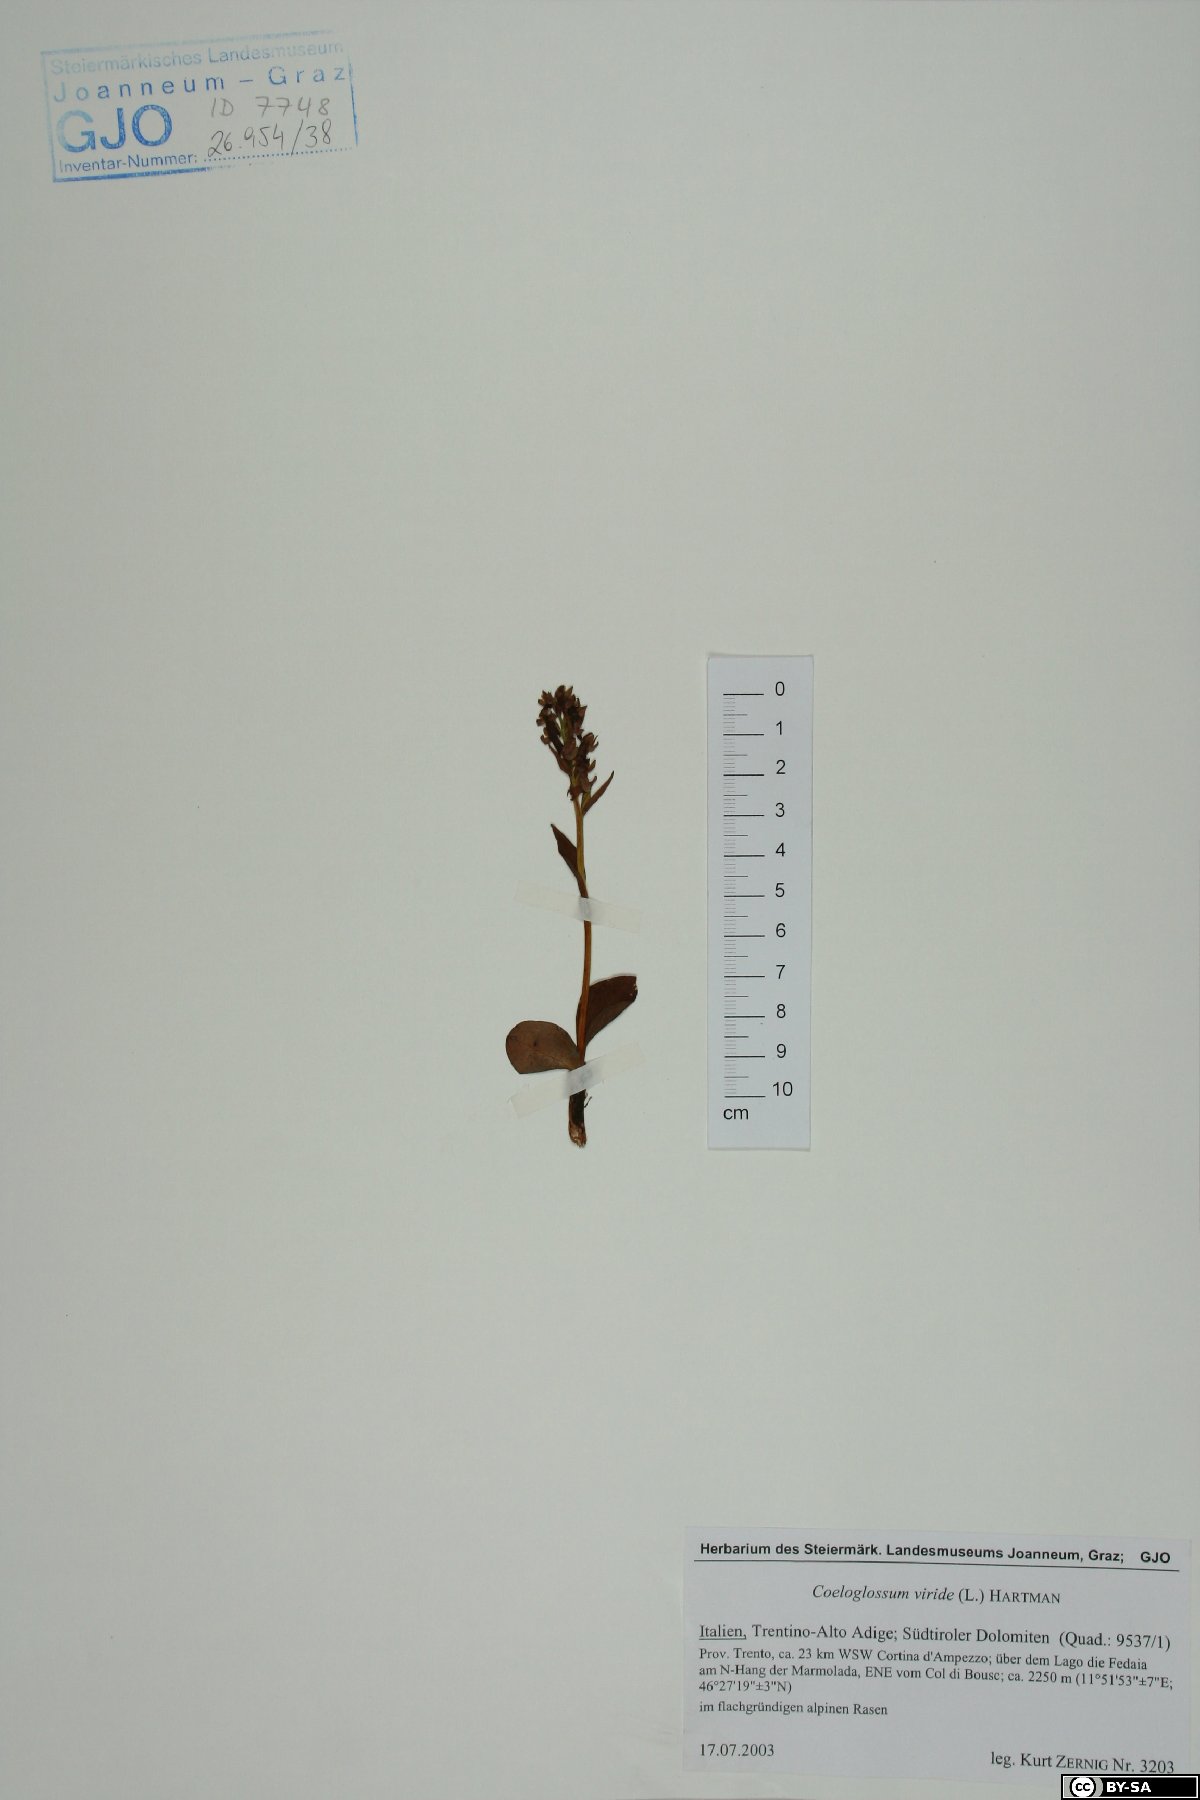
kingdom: Plantae
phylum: Tracheophyta
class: Liliopsida
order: Asparagales
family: Orchidaceae
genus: Dactylorhiza
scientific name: Dactylorhiza viridis
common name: Longbract frog orchid
